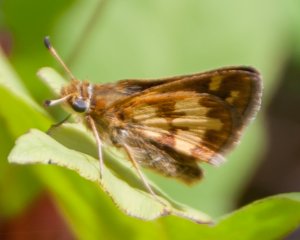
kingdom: Animalia
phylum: Arthropoda
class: Insecta
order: Lepidoptera
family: Hesperiidae
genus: Polites
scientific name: Polites coras
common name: Peck's Skipper
